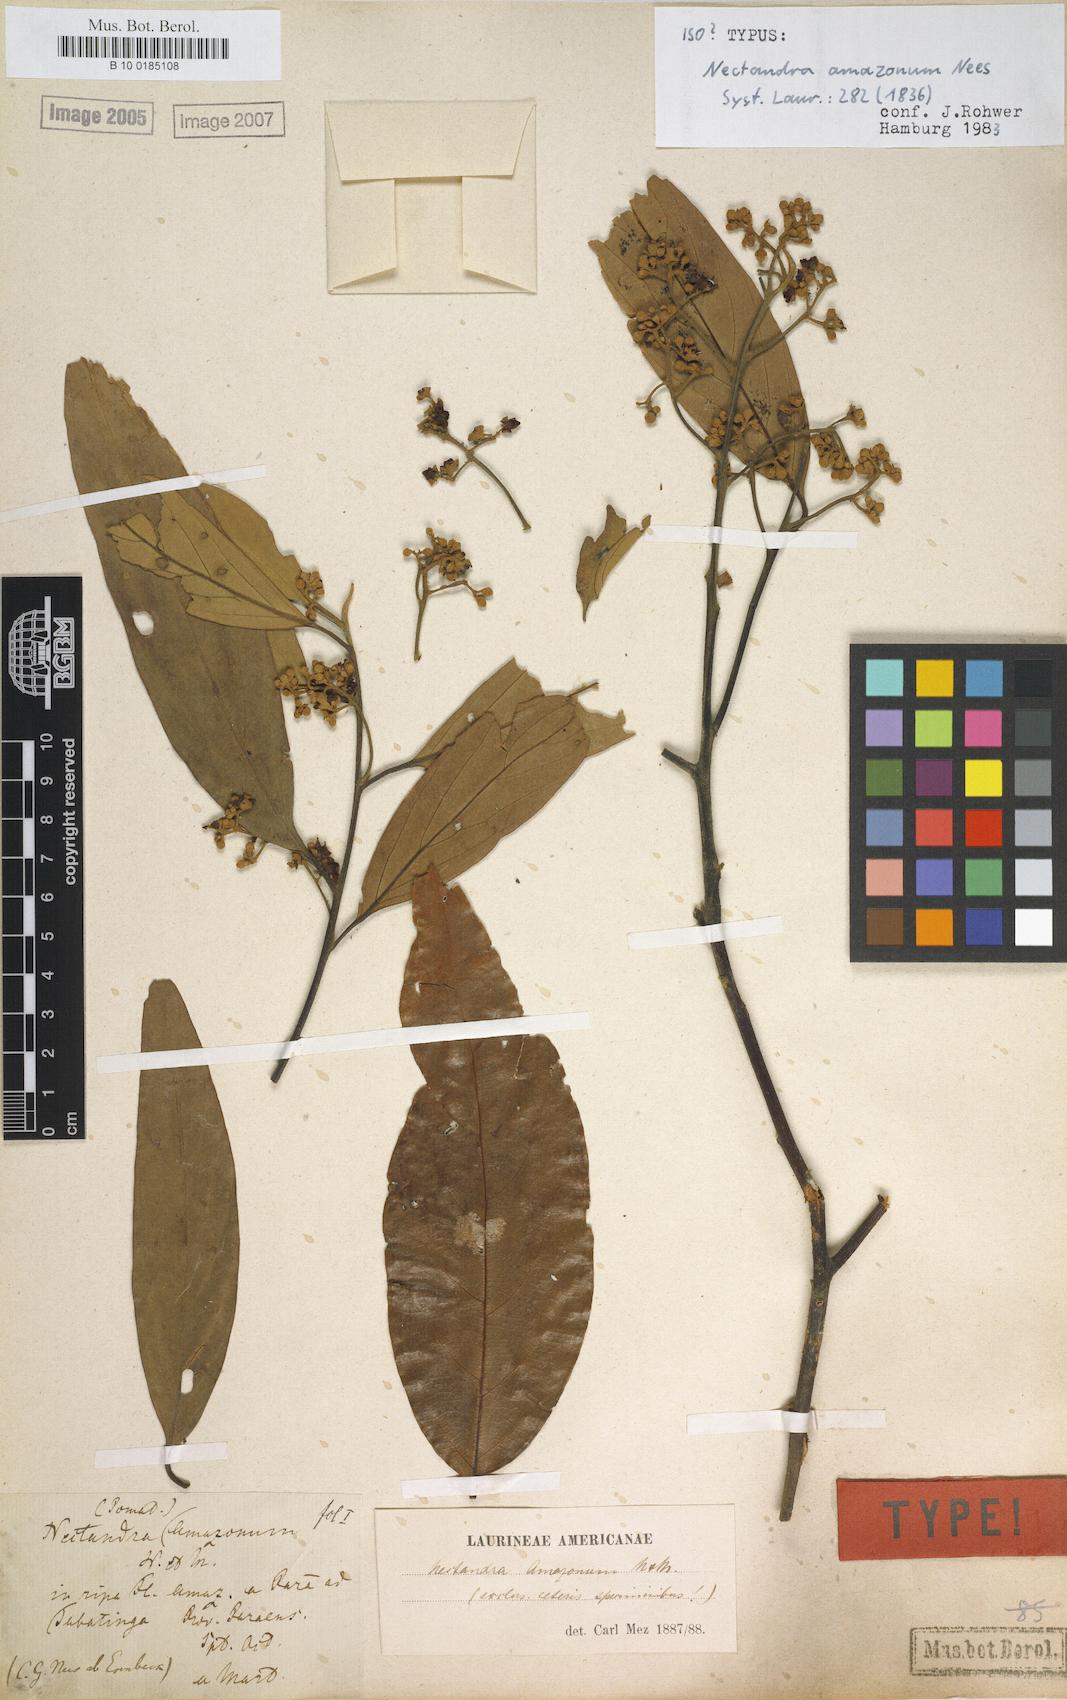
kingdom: Plantae
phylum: Tracheophyta
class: Magnoliopsida
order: Laurales
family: Lauraceae
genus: Nectandra
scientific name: Nectandra amazonum
